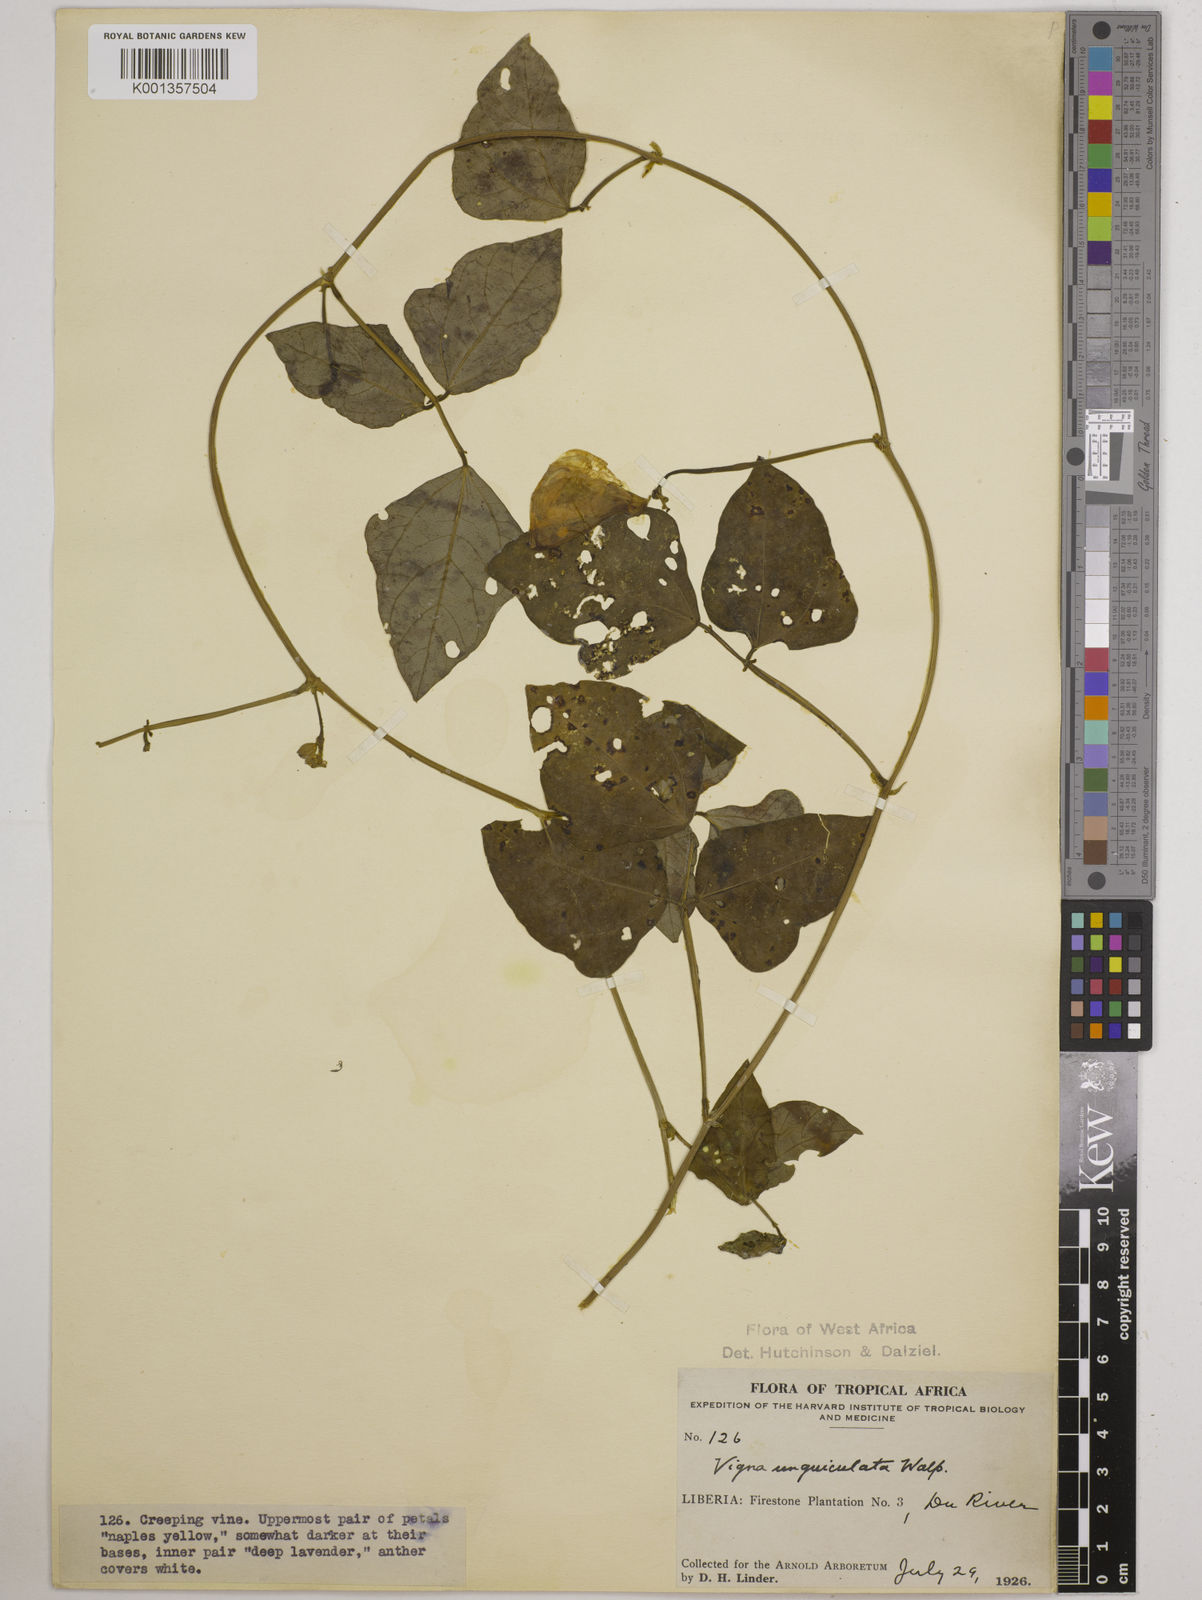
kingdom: Plantae
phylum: Tracheophyta
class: Magnoliopsida
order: Fabales
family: Fabaceae
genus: Vigna
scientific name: Vigna
